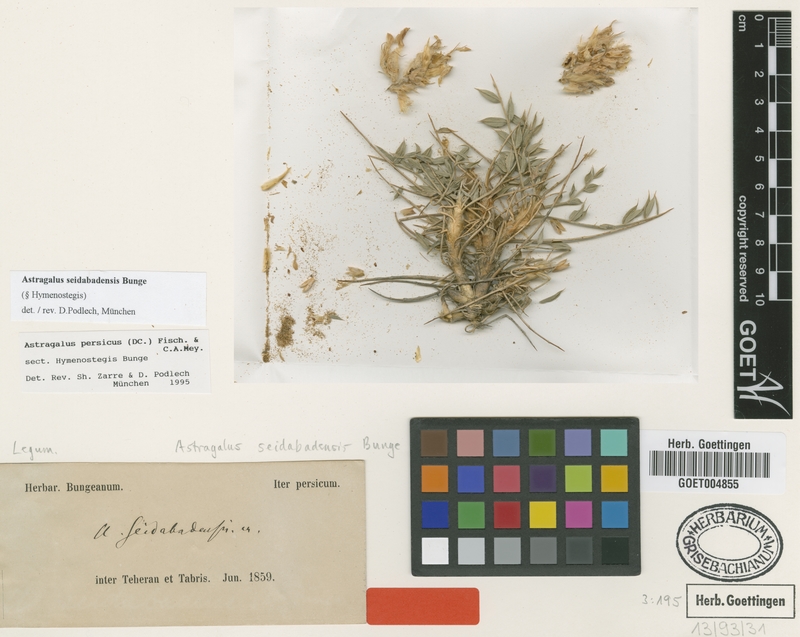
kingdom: Plantae
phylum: Tracheophyta
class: Magnoliopsida
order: Fabales
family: Fabaceae
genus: Astragalus
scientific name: Astragalus seidabadensis
